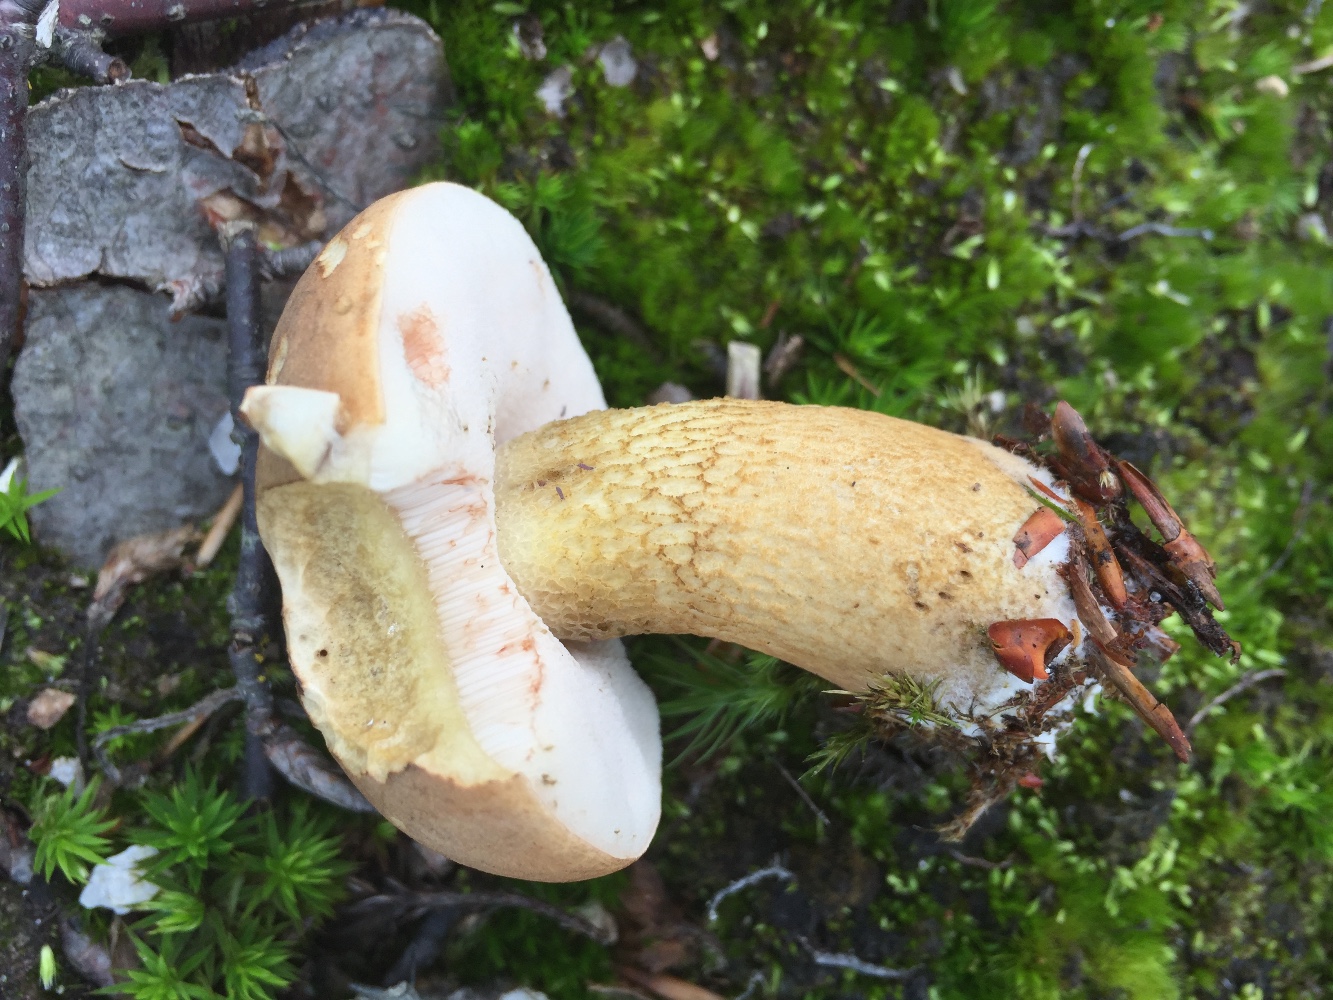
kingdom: Fungi
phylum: Basidiomycota
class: Agaricomycetes
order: Boletales
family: Boletaceae
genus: Tylopilus
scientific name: Tylopilus felleus
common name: galderørhat
